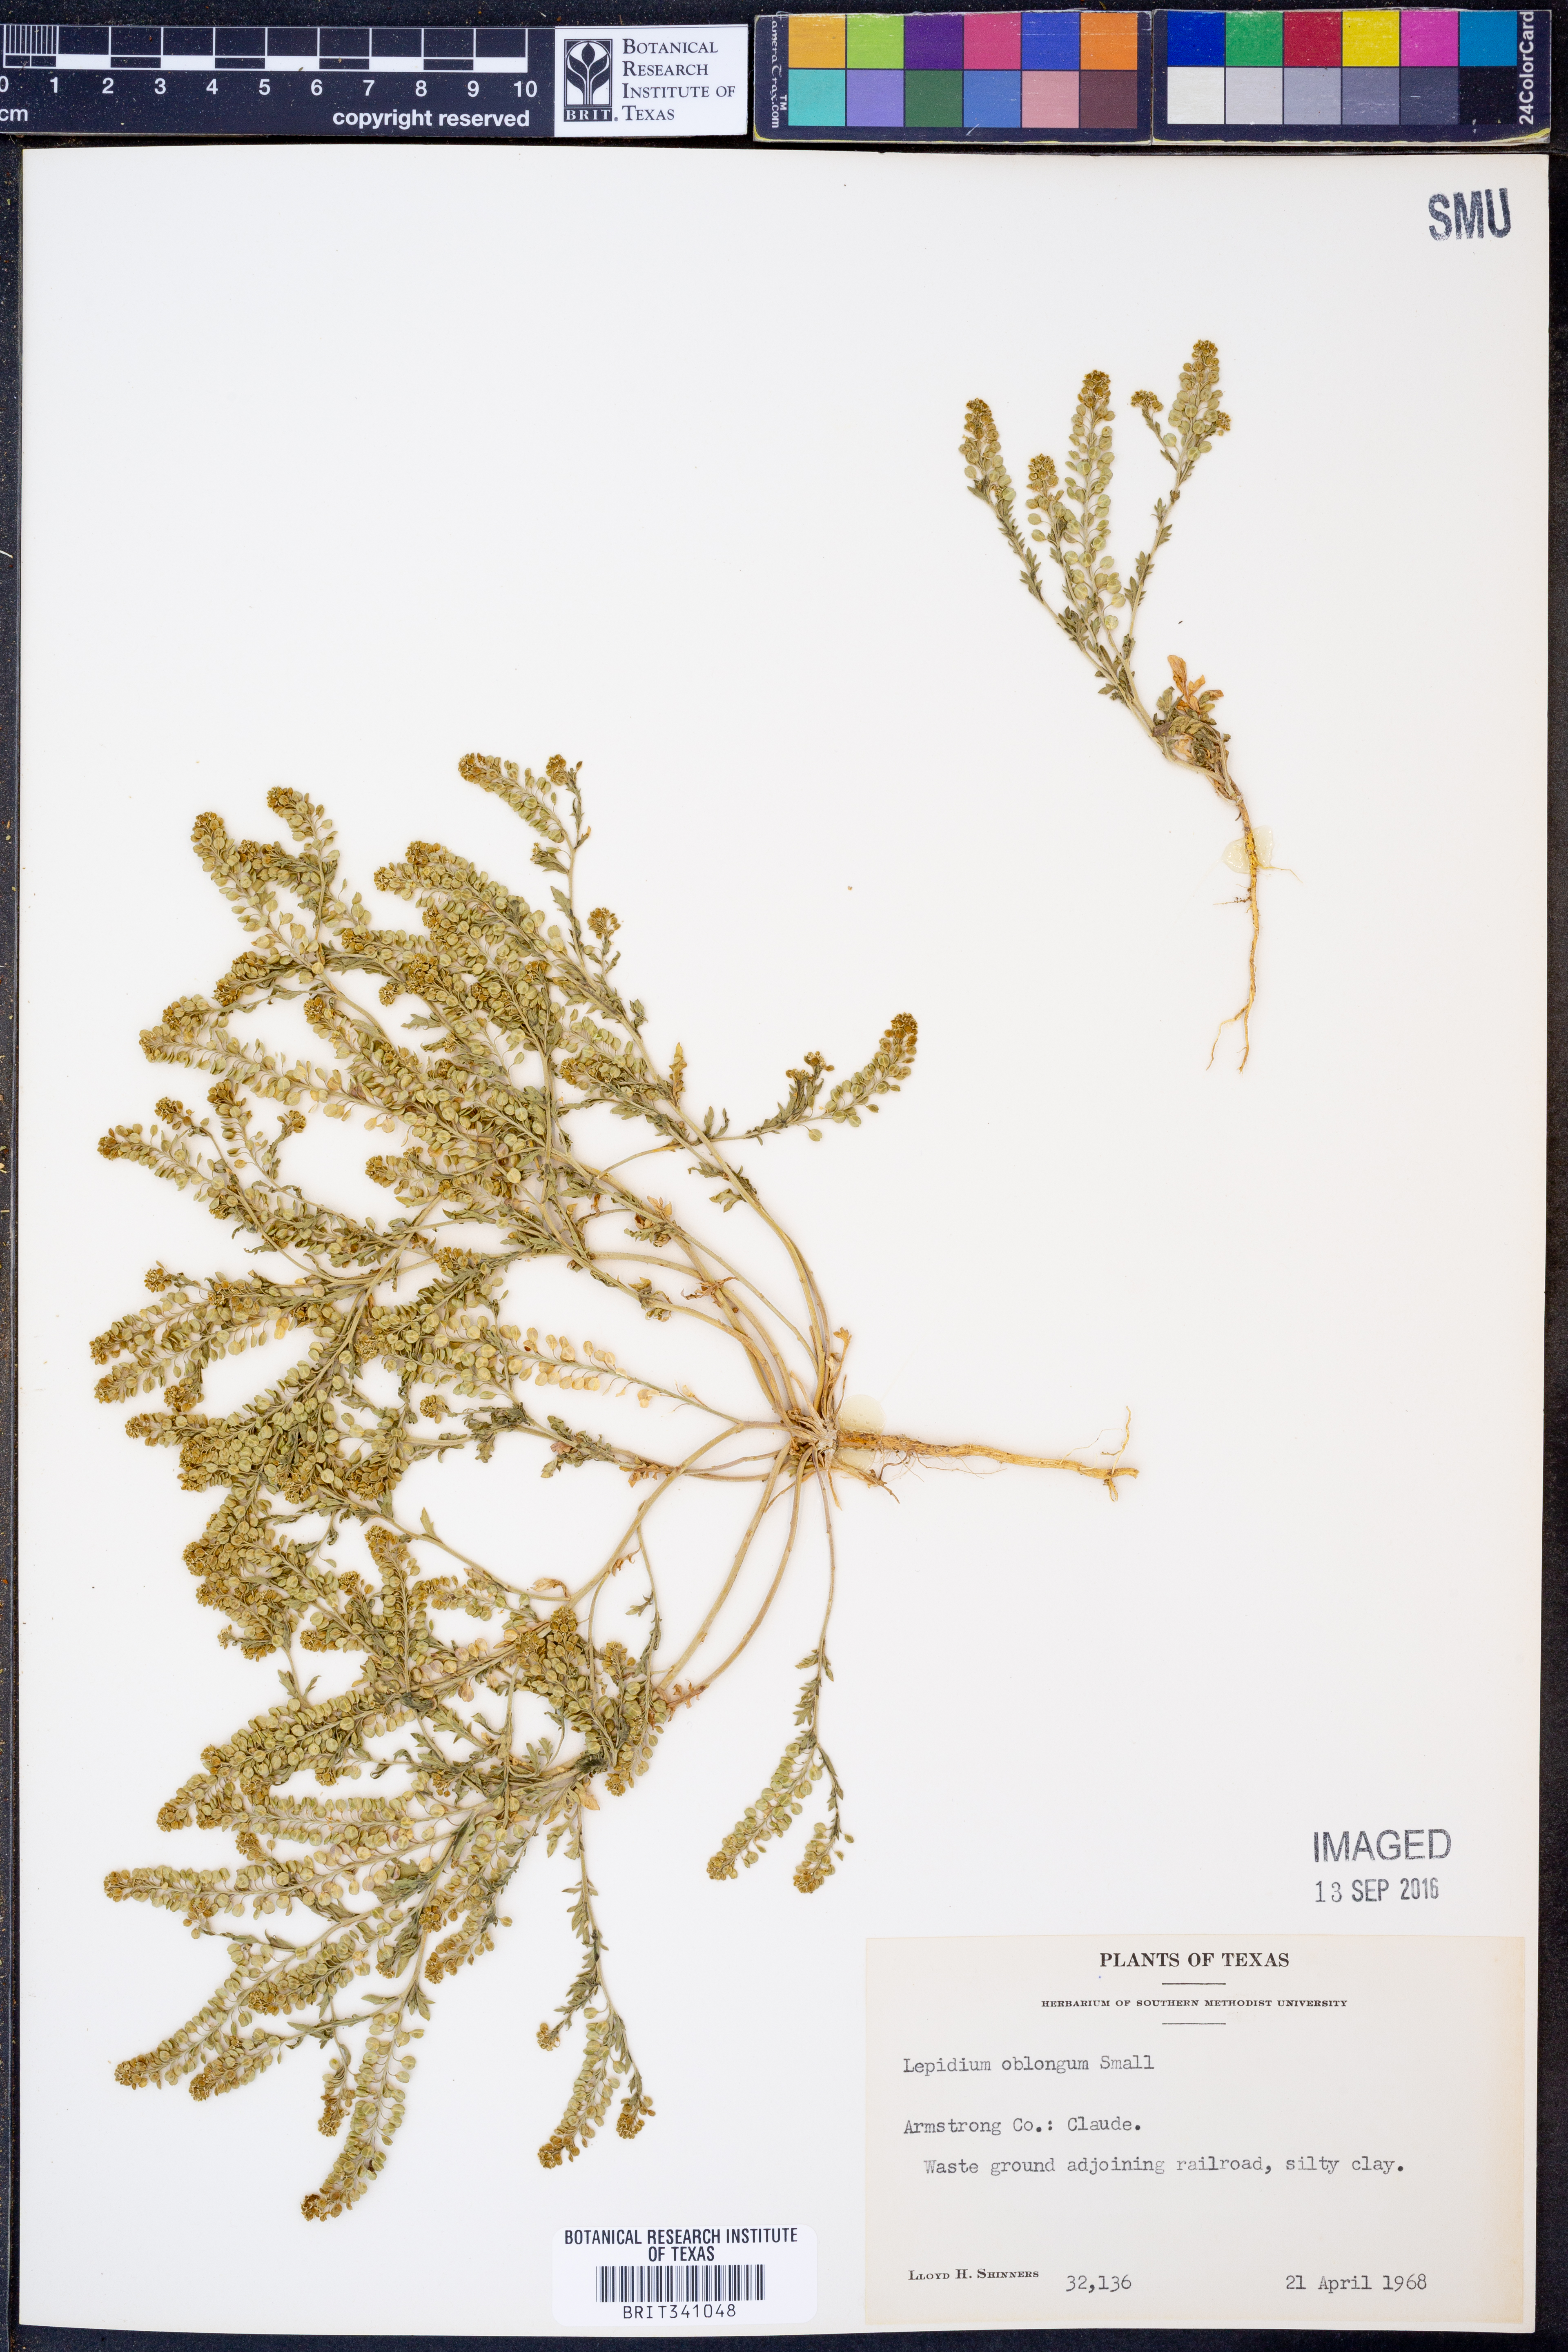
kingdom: Plantae
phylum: Tracheophyta
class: Magnoliopsida
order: Brassicales
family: Brassicaceae
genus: Lepidium
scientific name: Lepidium oblongum
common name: Veiny pepperweed
